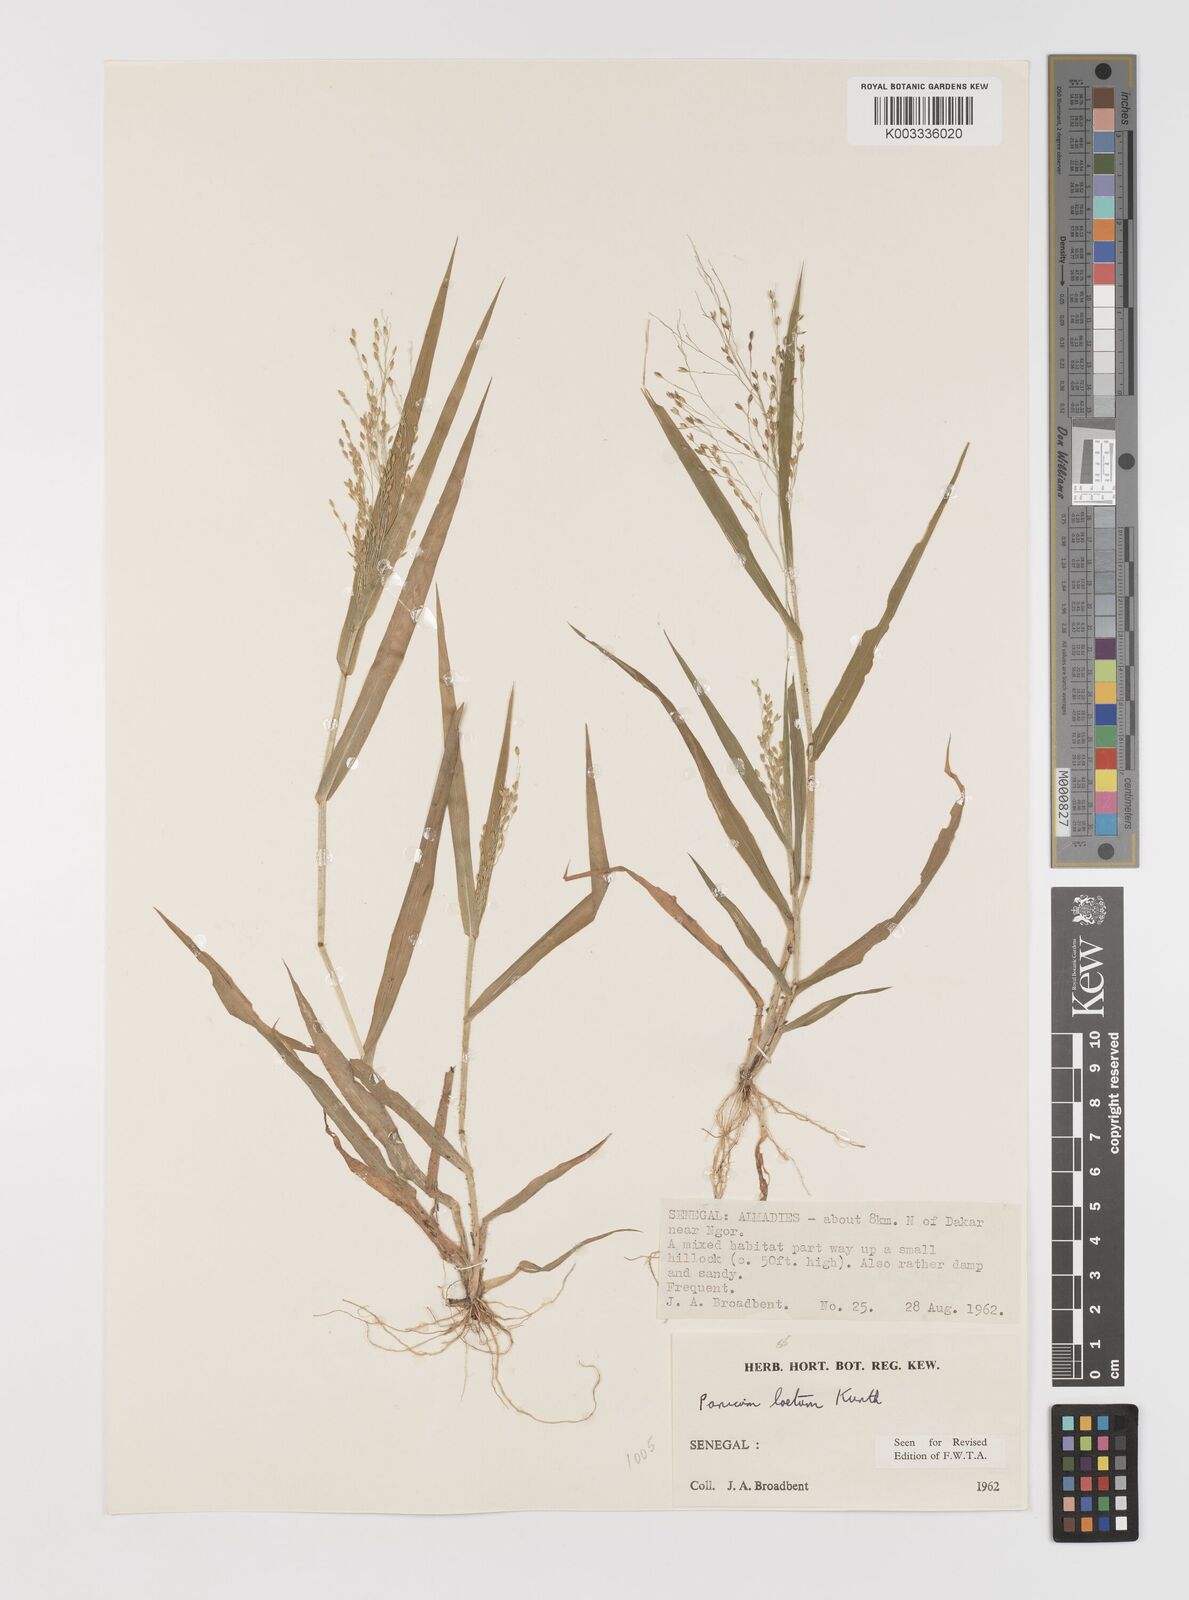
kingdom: Plantae
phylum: Tracheophyta
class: Liliopsida
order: Poales
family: Poaceae
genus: Panicum
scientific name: Panicum laetum
